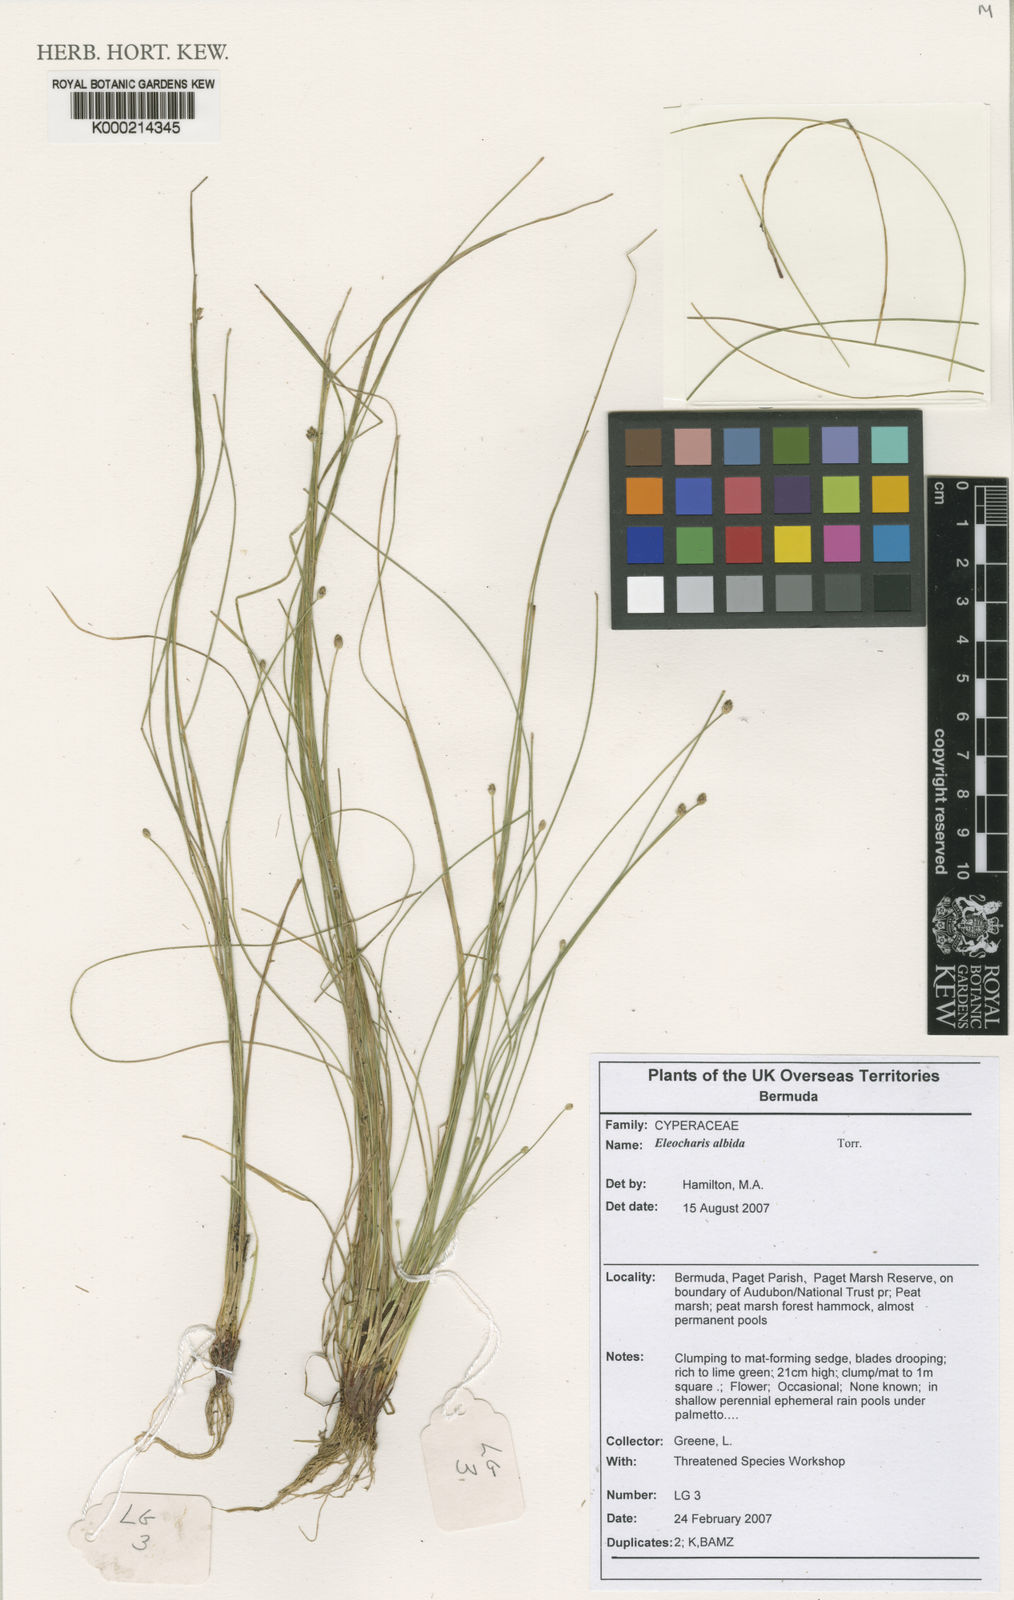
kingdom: Plantae
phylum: Tracheophyta
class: Liliopsida
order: Poales
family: Cyperaceae
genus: Eleocharis
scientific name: Eleocharis albida
